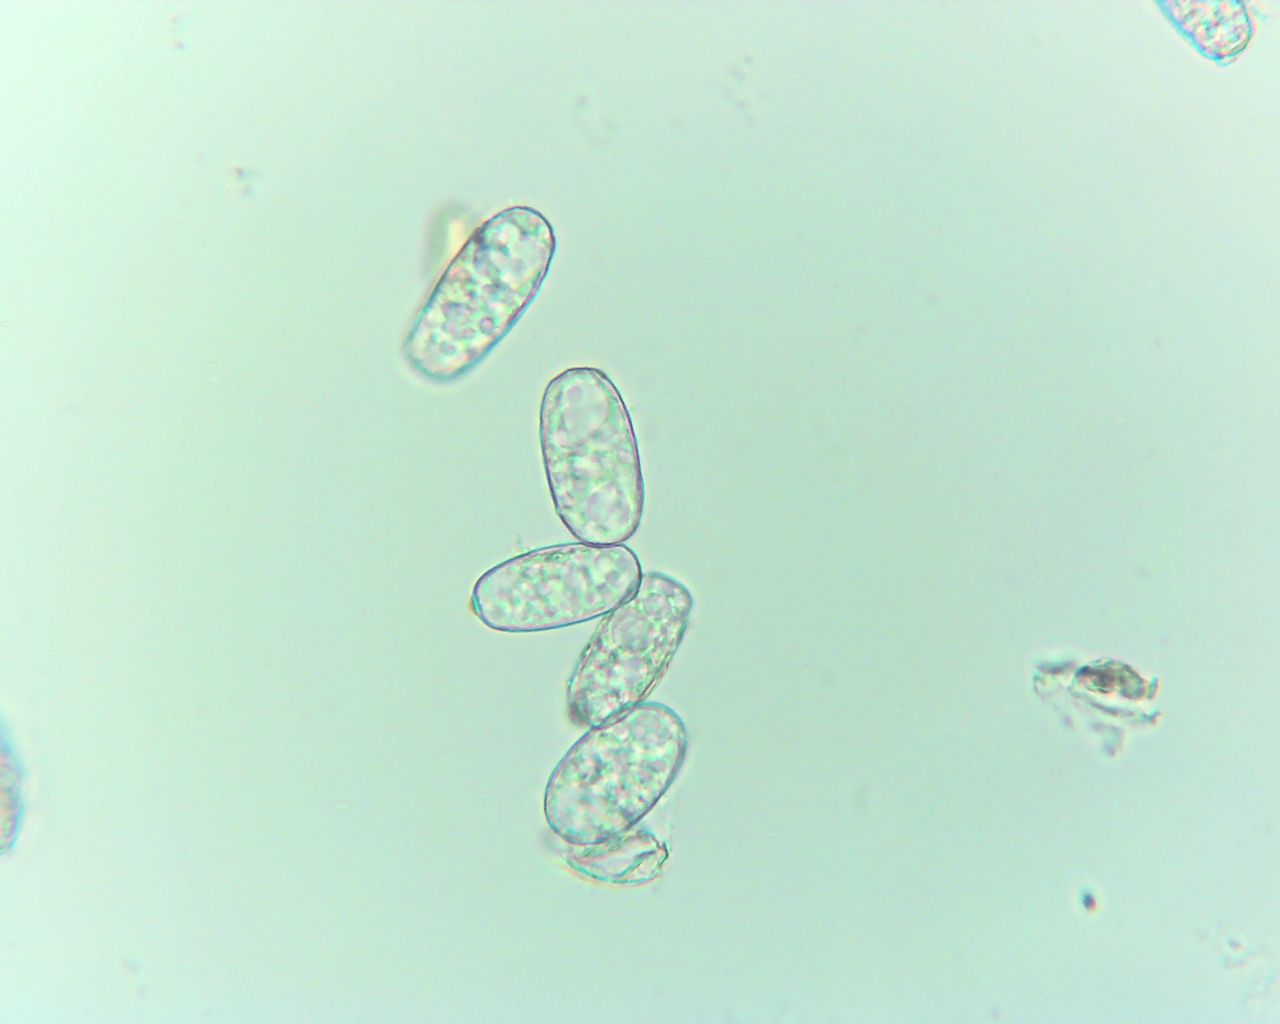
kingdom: Fungi
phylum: Ascomycota
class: Leotiomycetes
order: Helotiales
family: Erysiphaceae
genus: Erysiphe
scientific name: Erysiphe alphitoides
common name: ege-meldug
